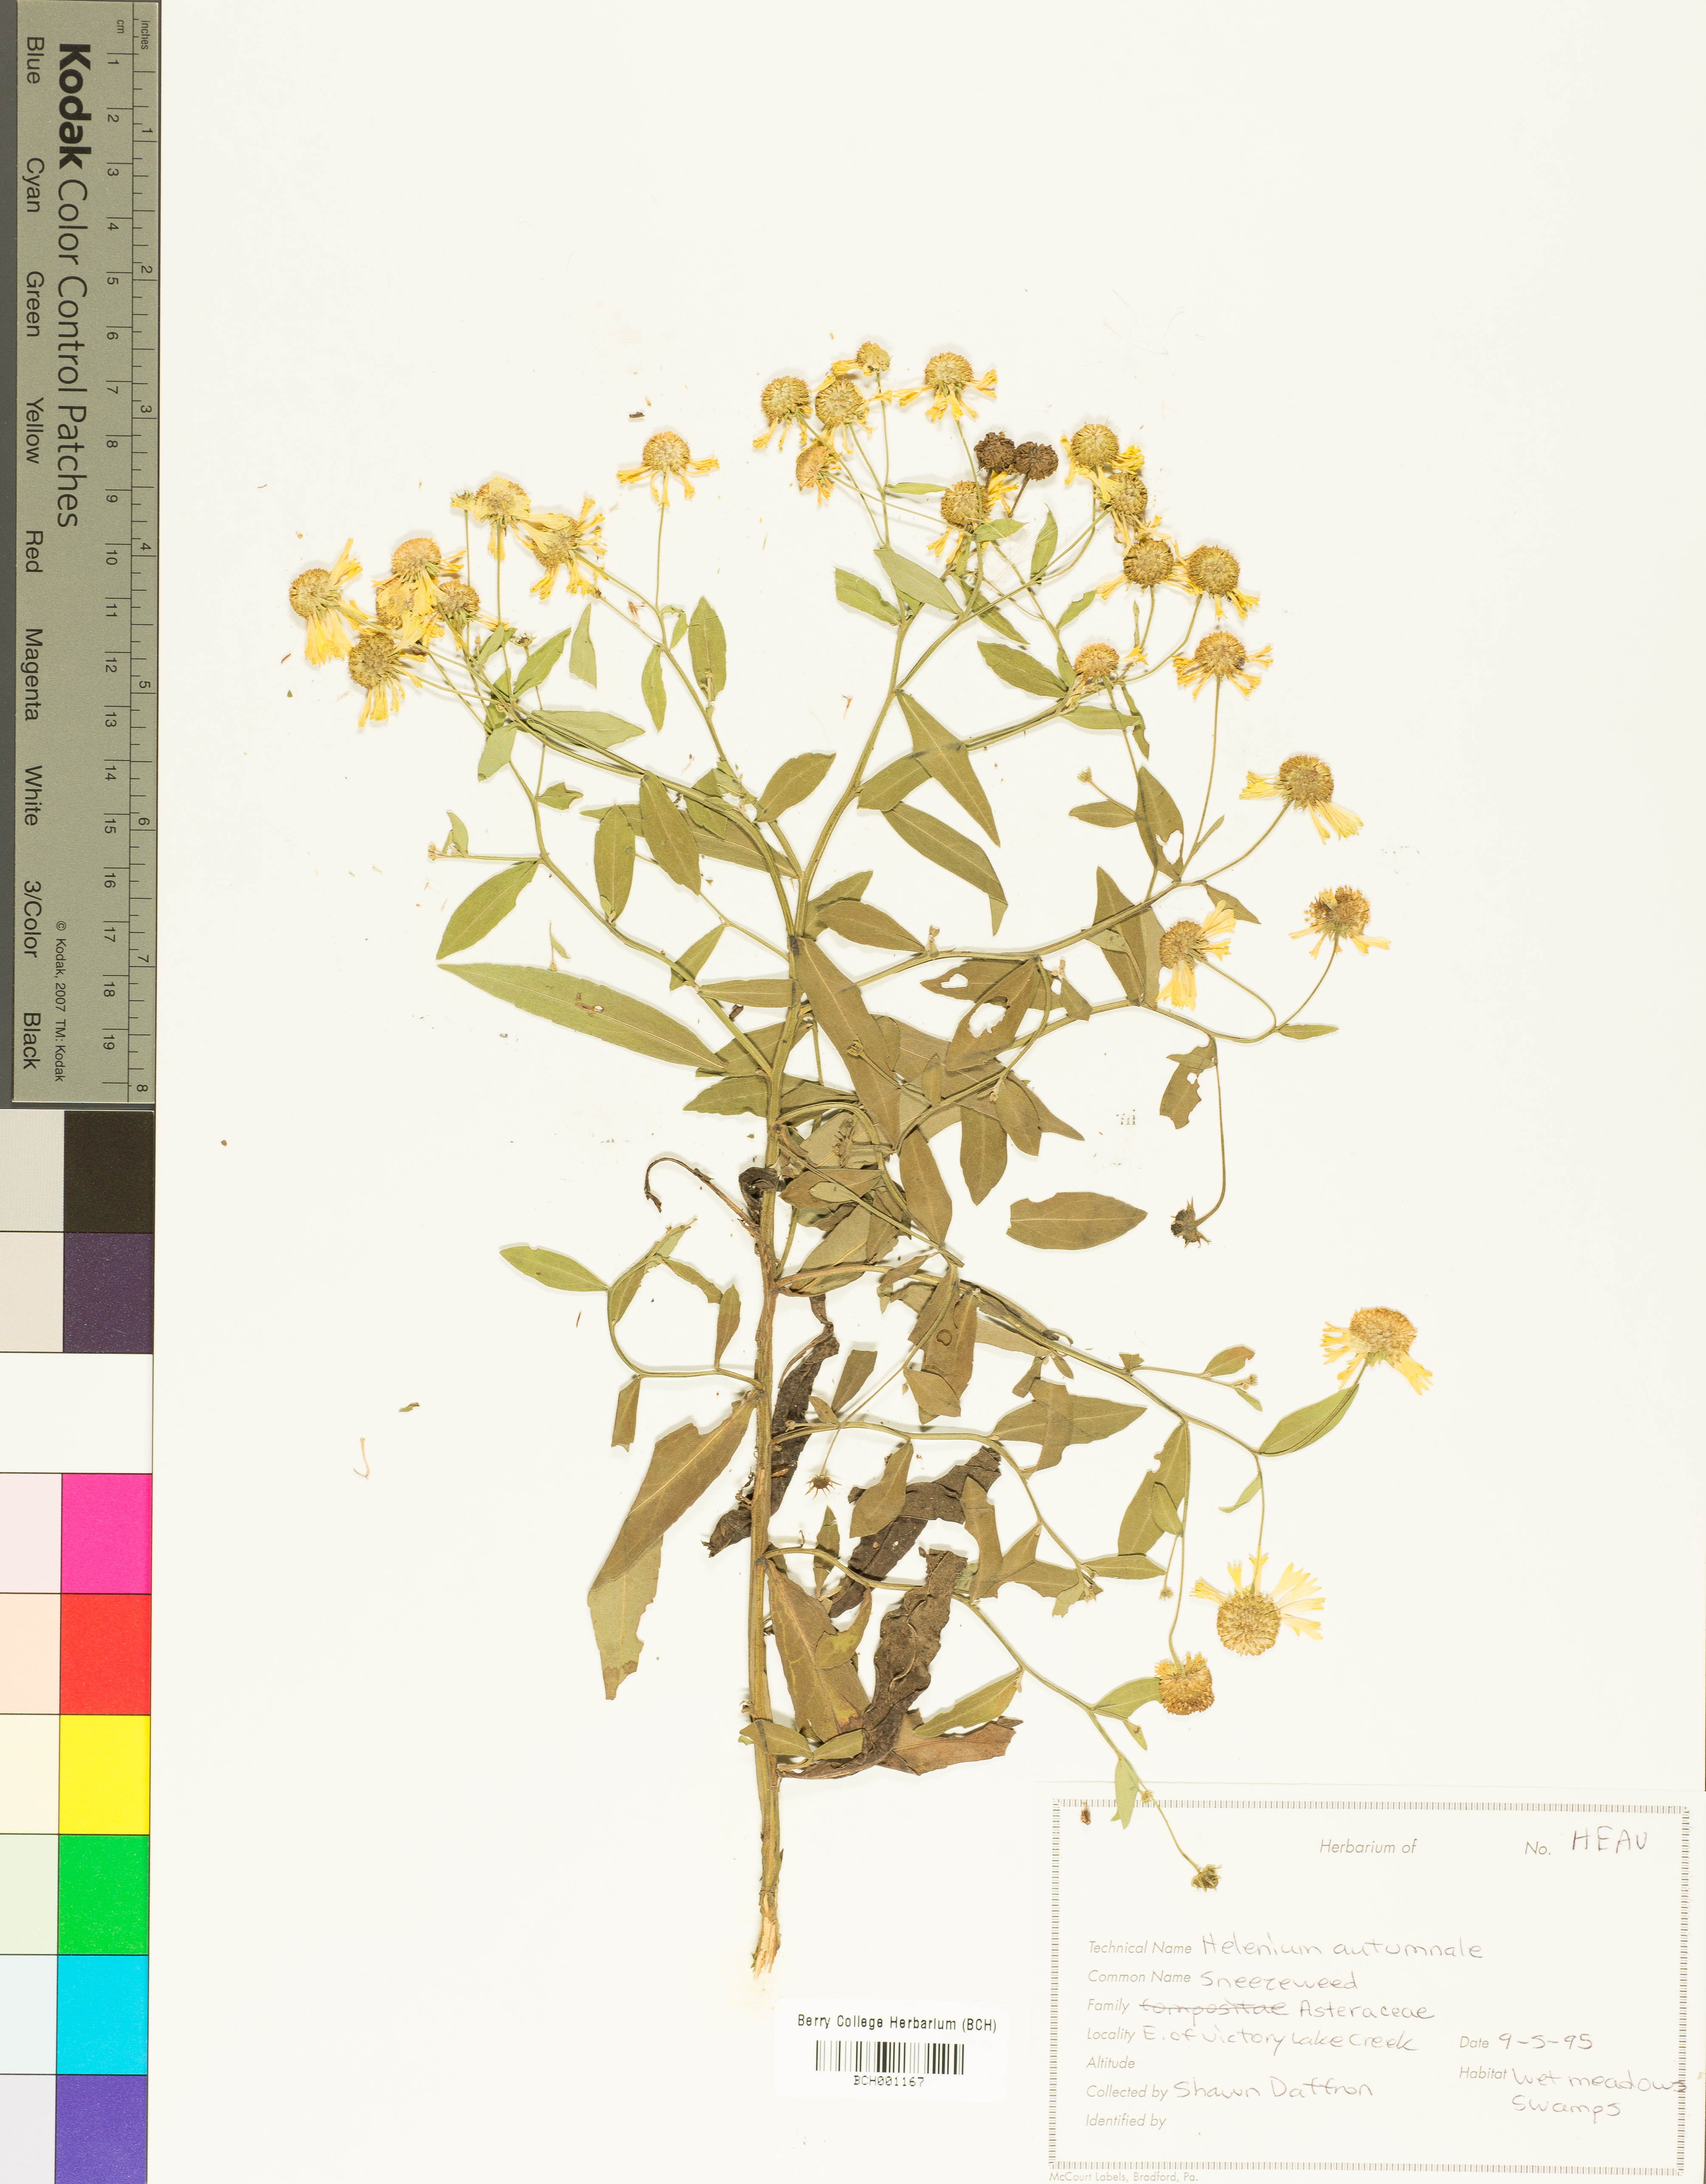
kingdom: Plantae
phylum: Tracheophyta
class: Magnoliopsida
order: Asterales
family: Asteraceae
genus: Helenium
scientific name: Helenium autumnale
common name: Sneezeweed
